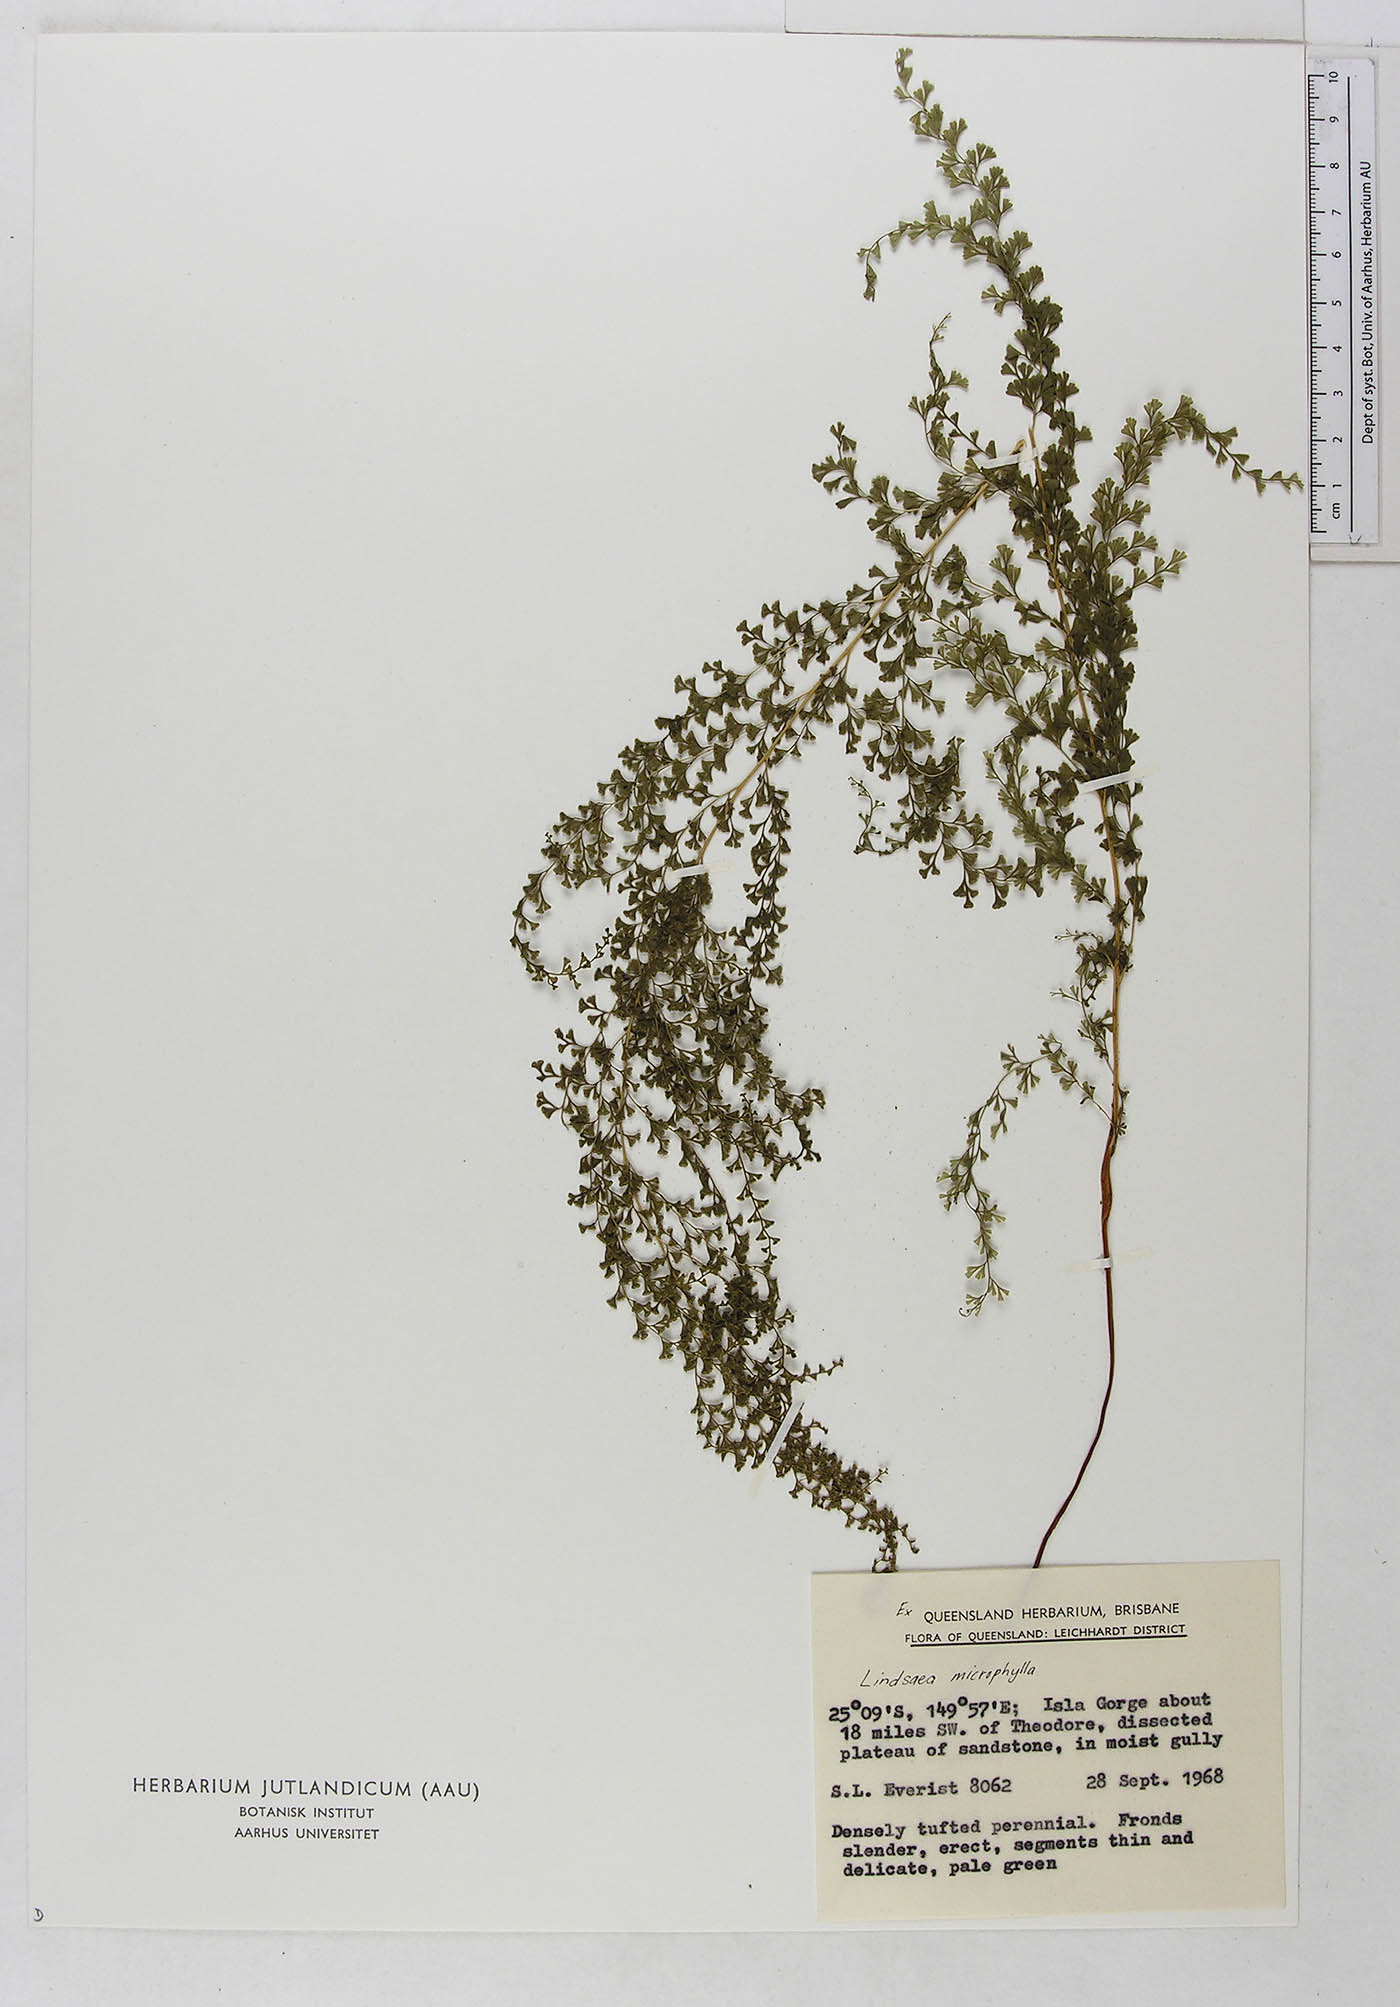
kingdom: Plantae
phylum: Tracheophyta
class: Polypodiopsida
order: Polypodiales
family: Dennstaedtiaceae
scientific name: Dennstaedtiaceae
